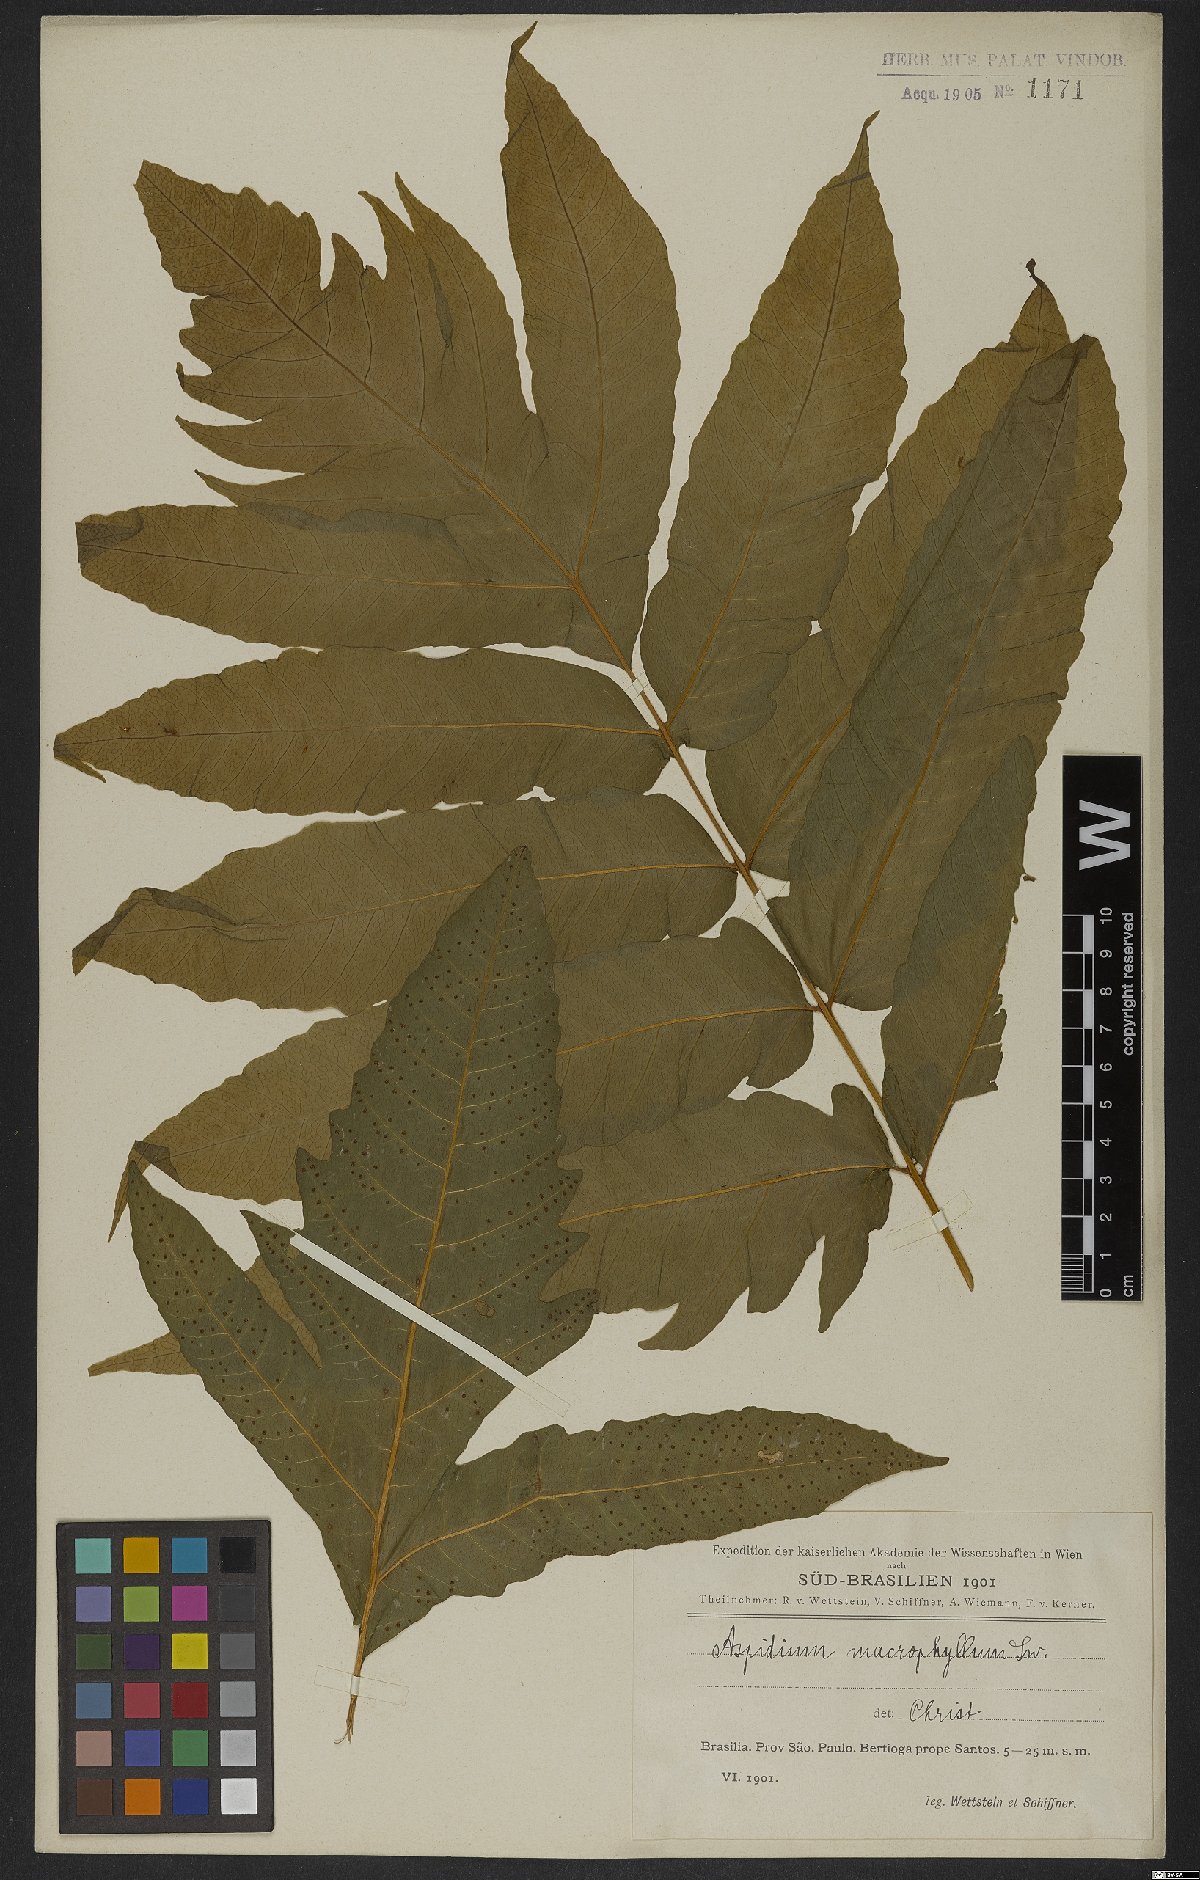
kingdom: Plantae
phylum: Tracheophyta
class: Polypodiopsida
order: Polypodiales
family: Tectariaceae
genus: Tectaria
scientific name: Tectaria incisa
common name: Incised halberd fern
